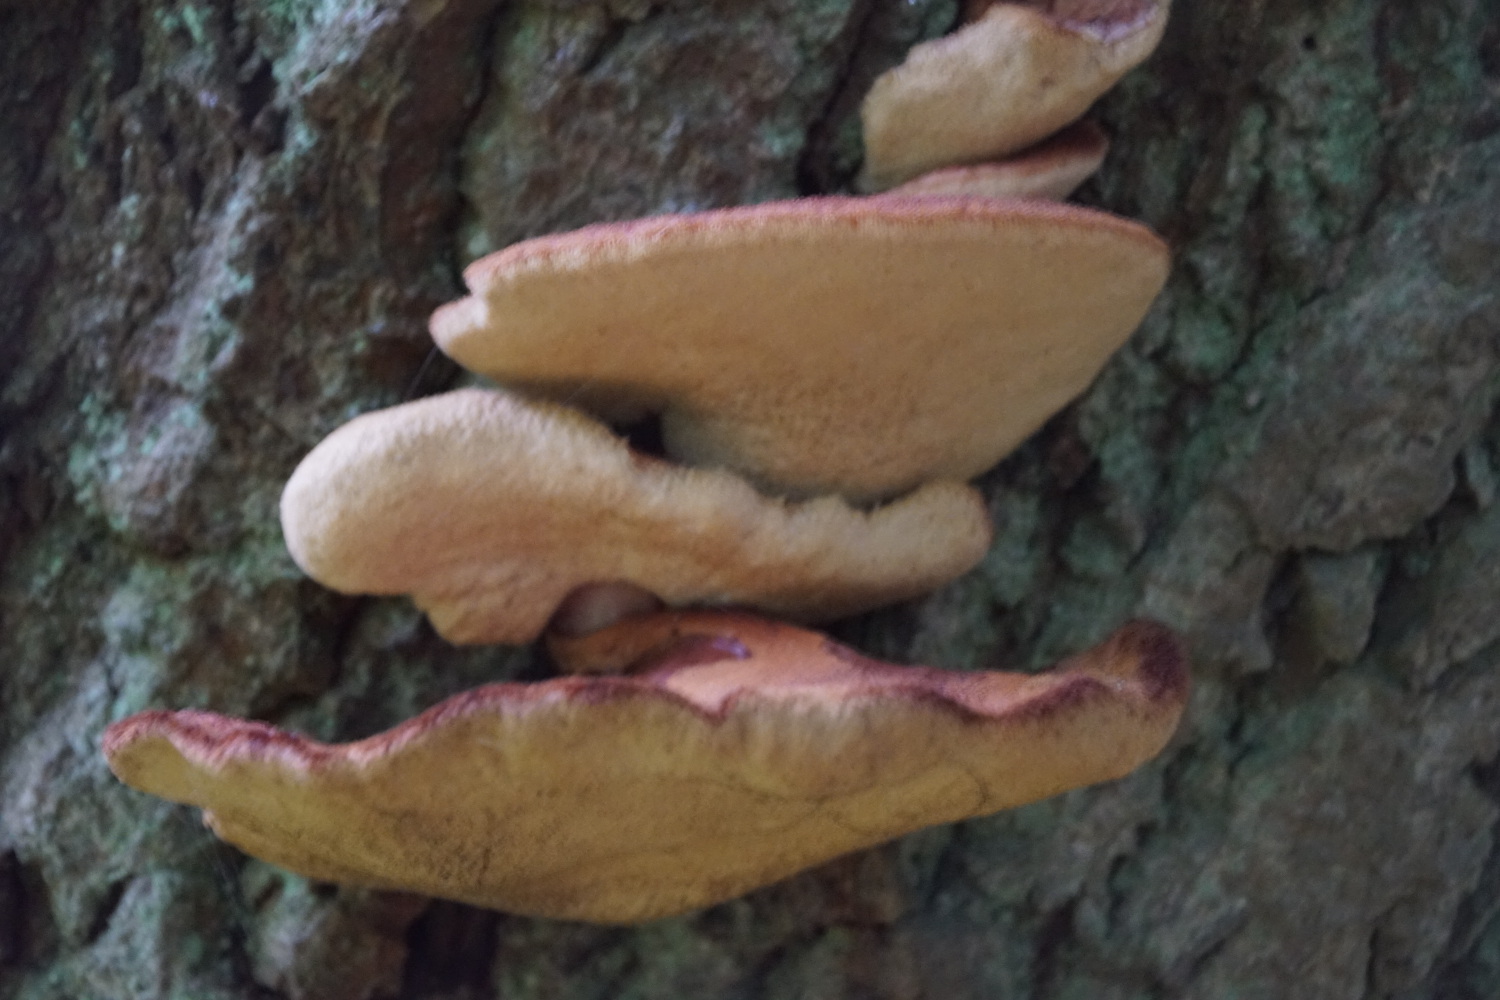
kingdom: Fungi
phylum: Basidiomycota
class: Agaricomycetes
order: Agaricales
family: Fistulinaceae
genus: Fistulina
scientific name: Fistulina hepatica
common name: oksetunge
